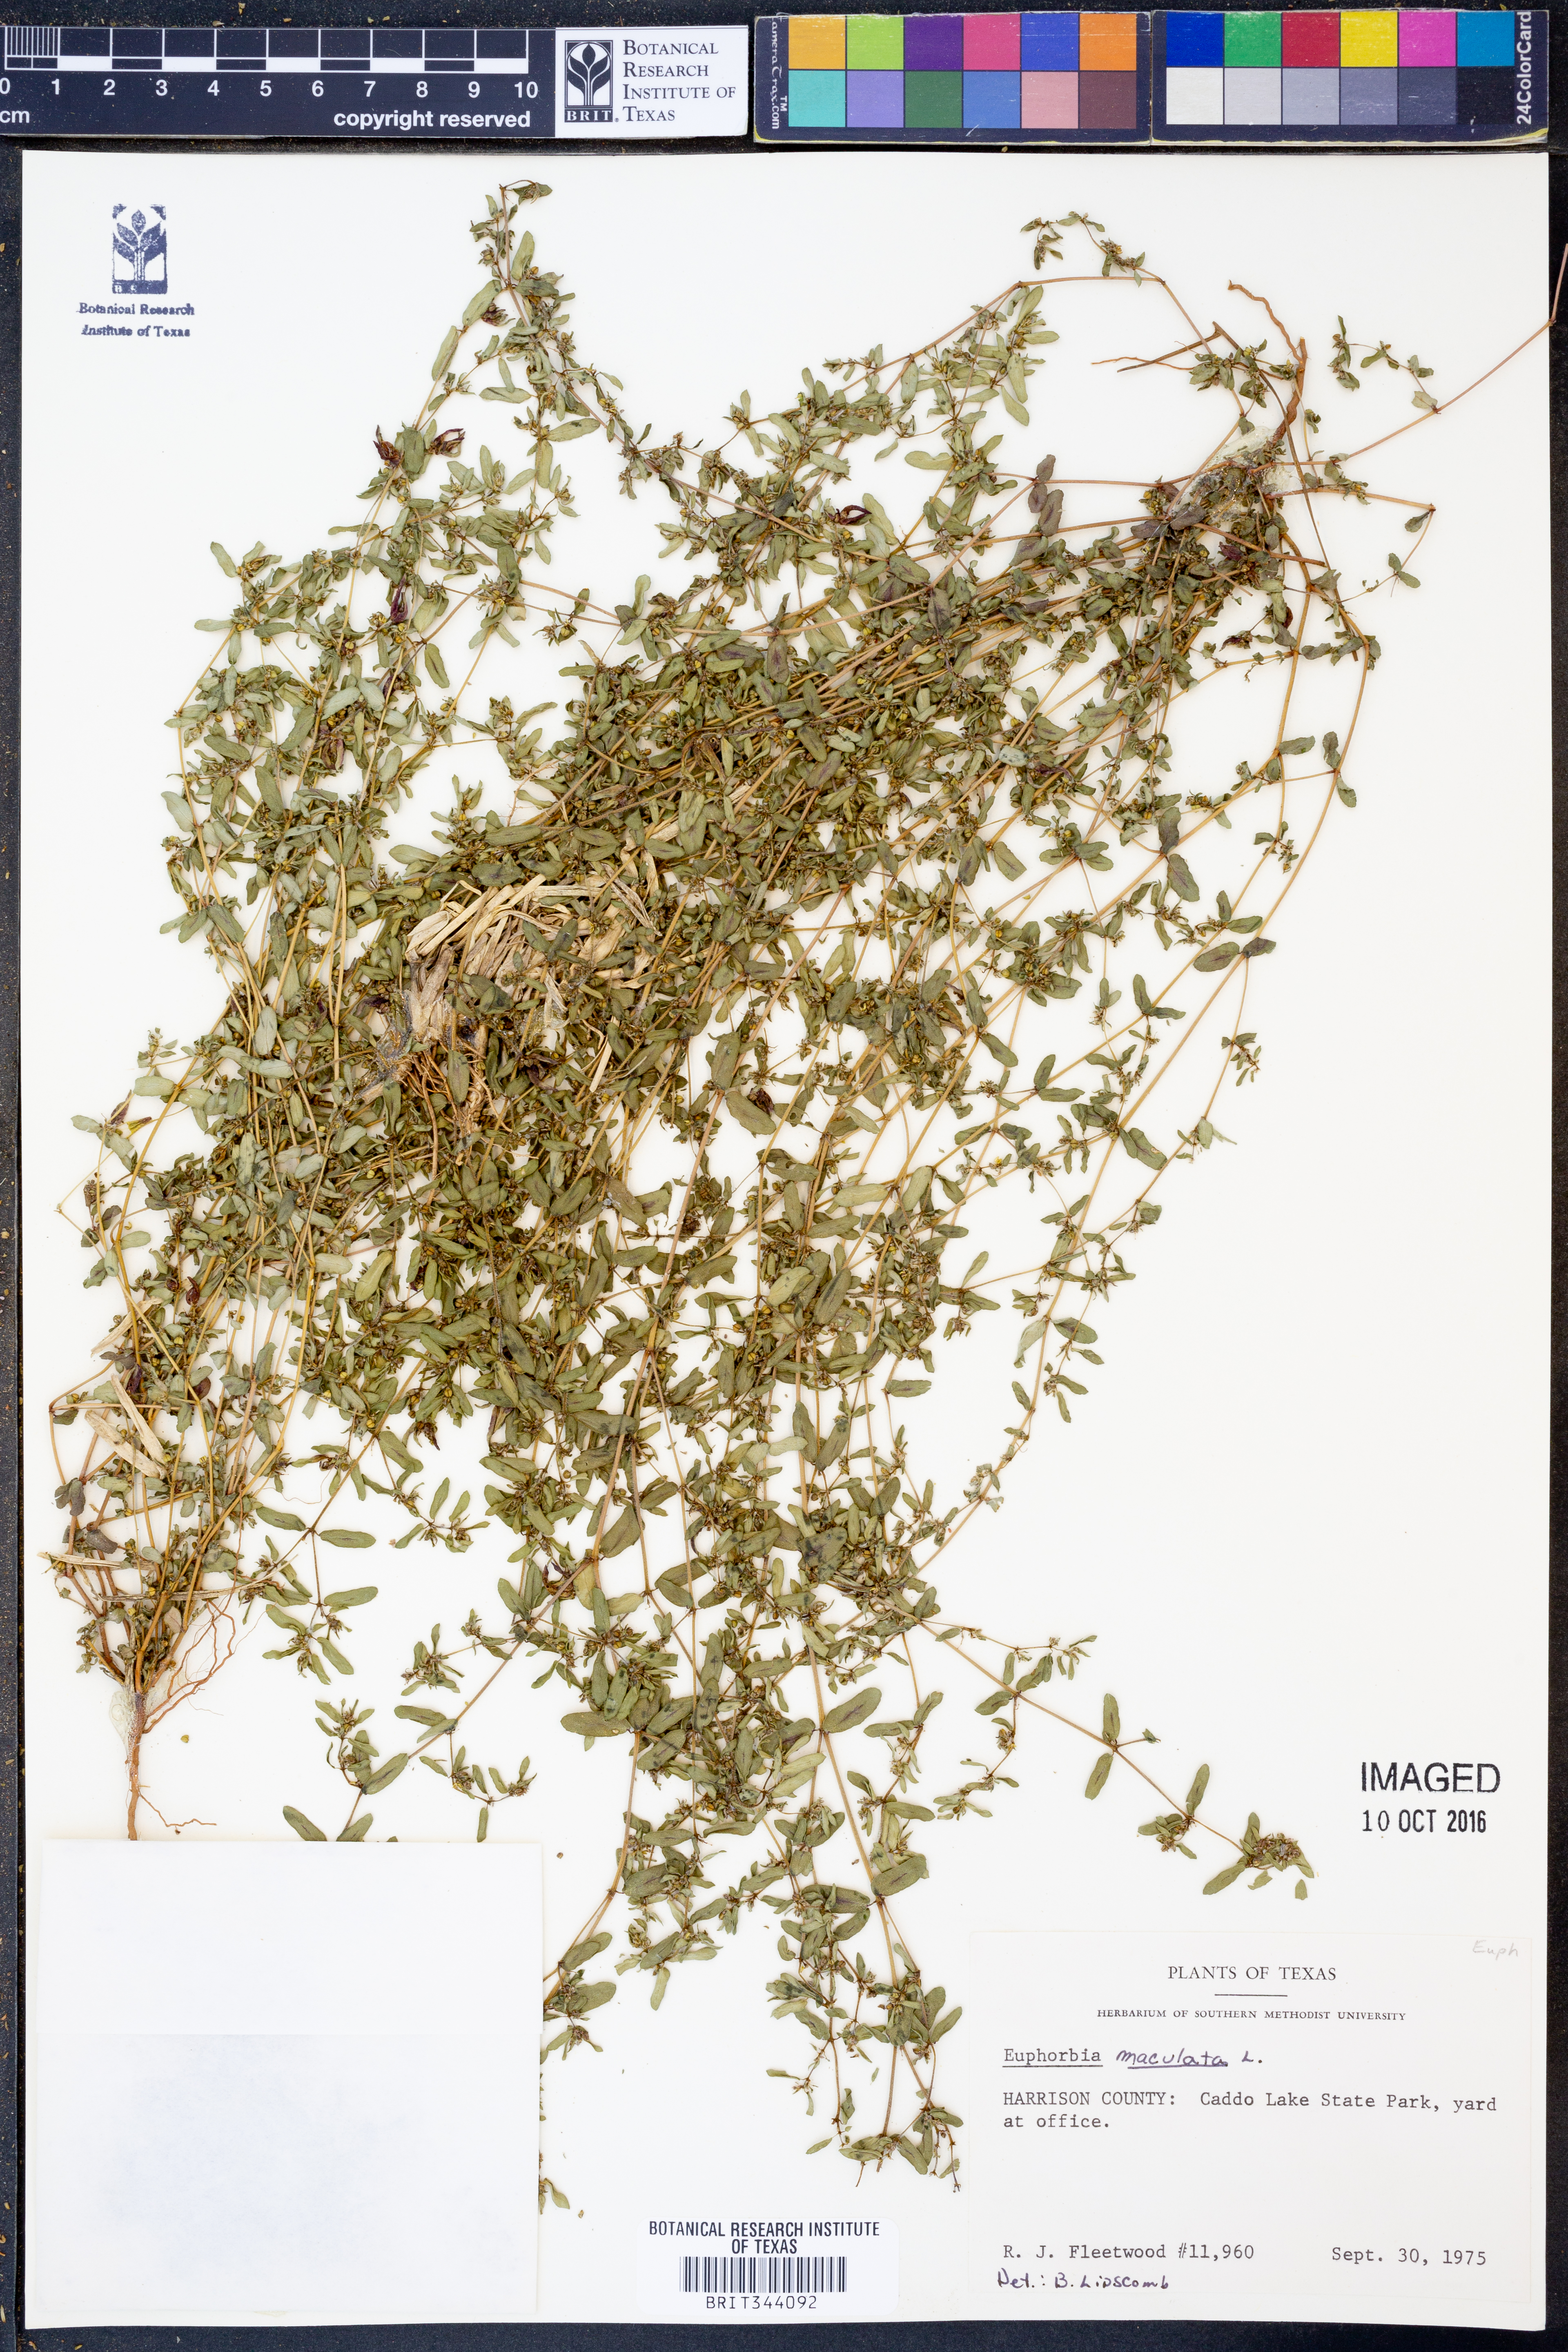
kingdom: Plantae
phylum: Tracheophyta
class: Magnoliopsida
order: Malpighiales
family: Euphorbiaceae
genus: Euphorbia
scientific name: Euphorbia maculata
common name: Spotted spurge
